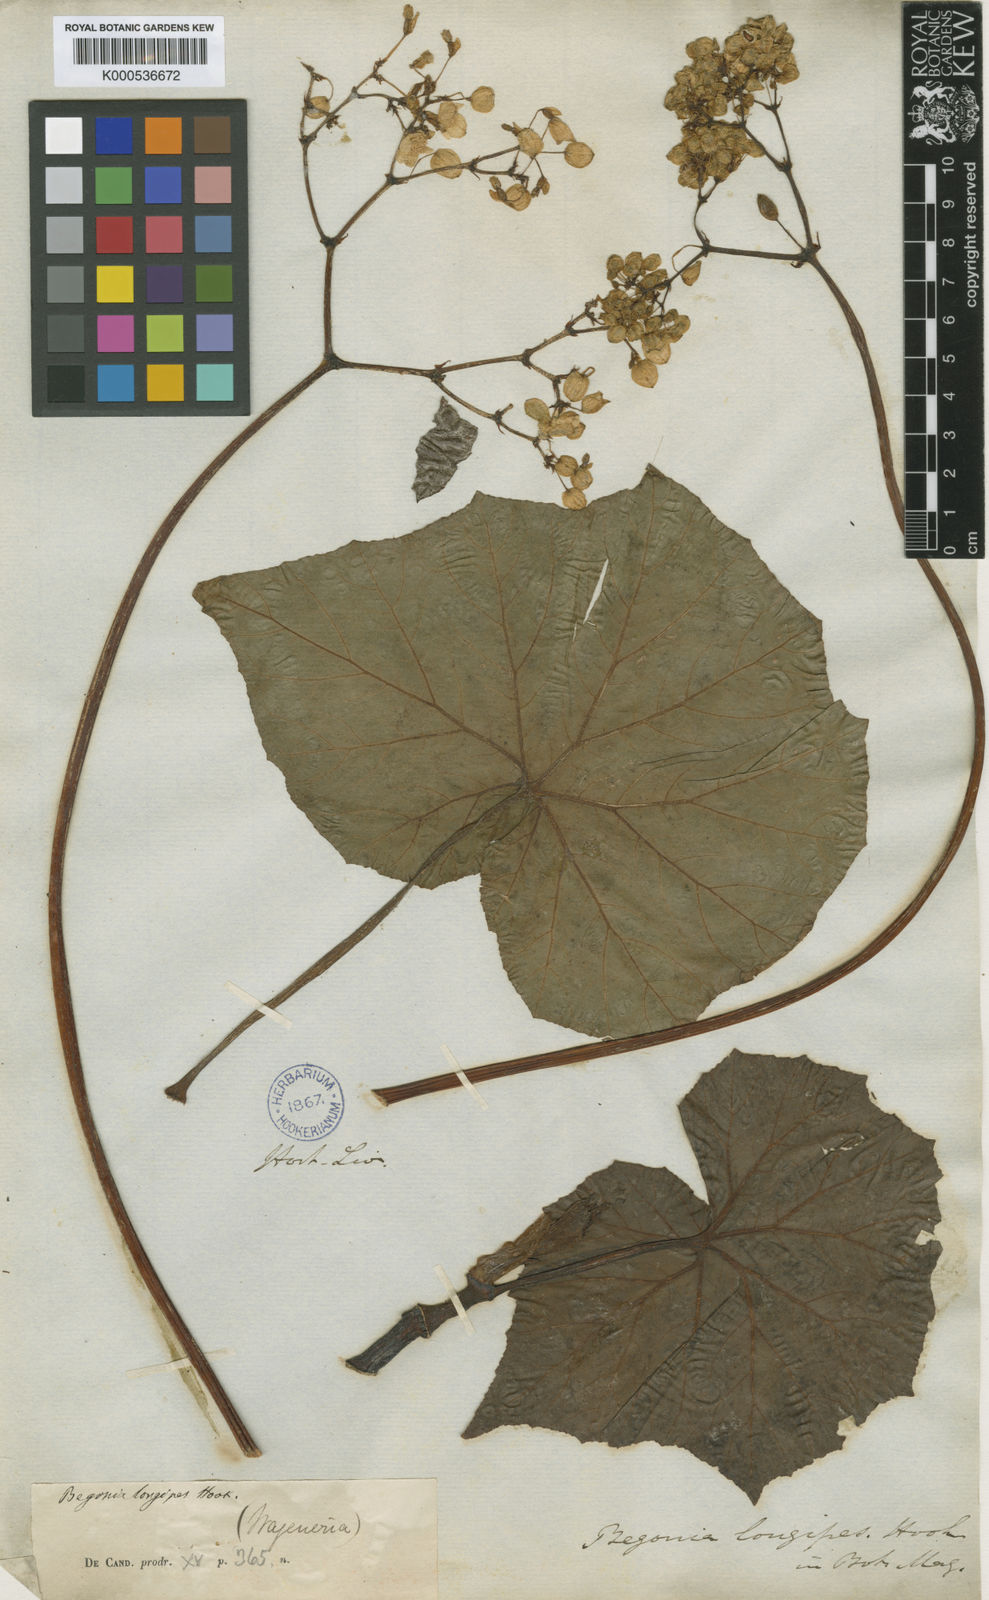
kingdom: Plantae
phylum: Tracheophyta
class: Magnoliopsida
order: Cucurbitales
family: Begoniaceae
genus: Begonia
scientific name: Begonia reniformis
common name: Grapeleaf begonia
